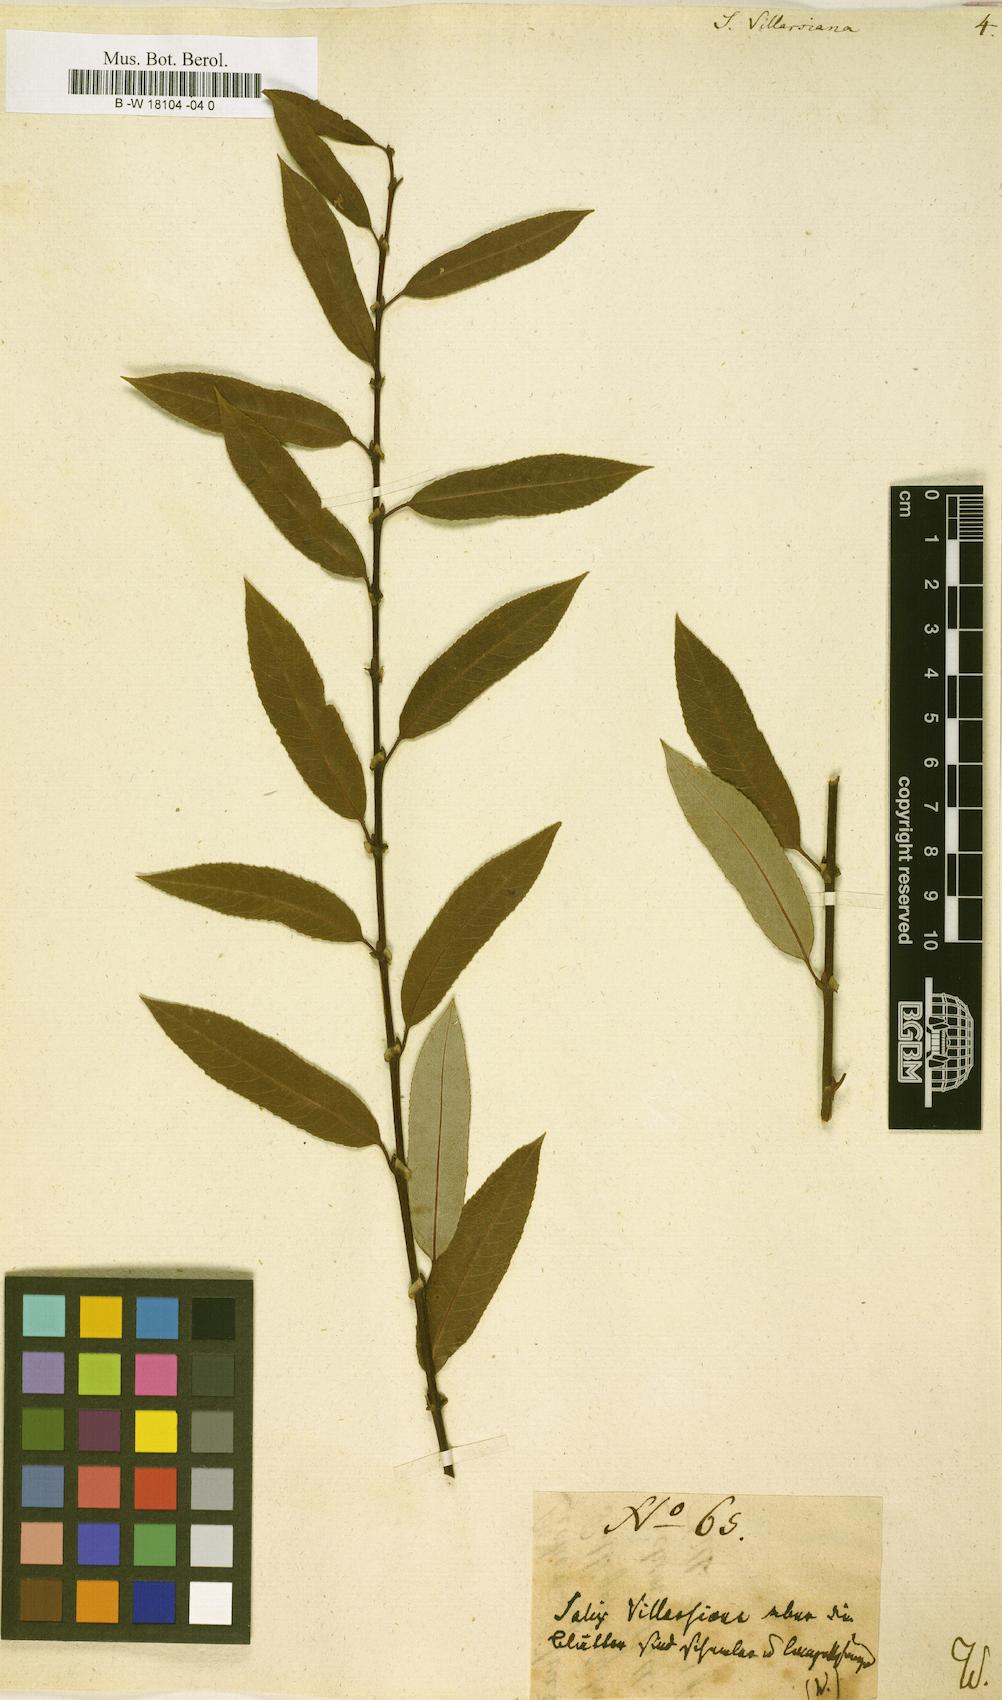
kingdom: Plantae
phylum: Tracheophyta
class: Magnoliopsida
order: Malpighiales
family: Salicaceae
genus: Salix
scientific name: Salix triandra
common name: Almond willow
